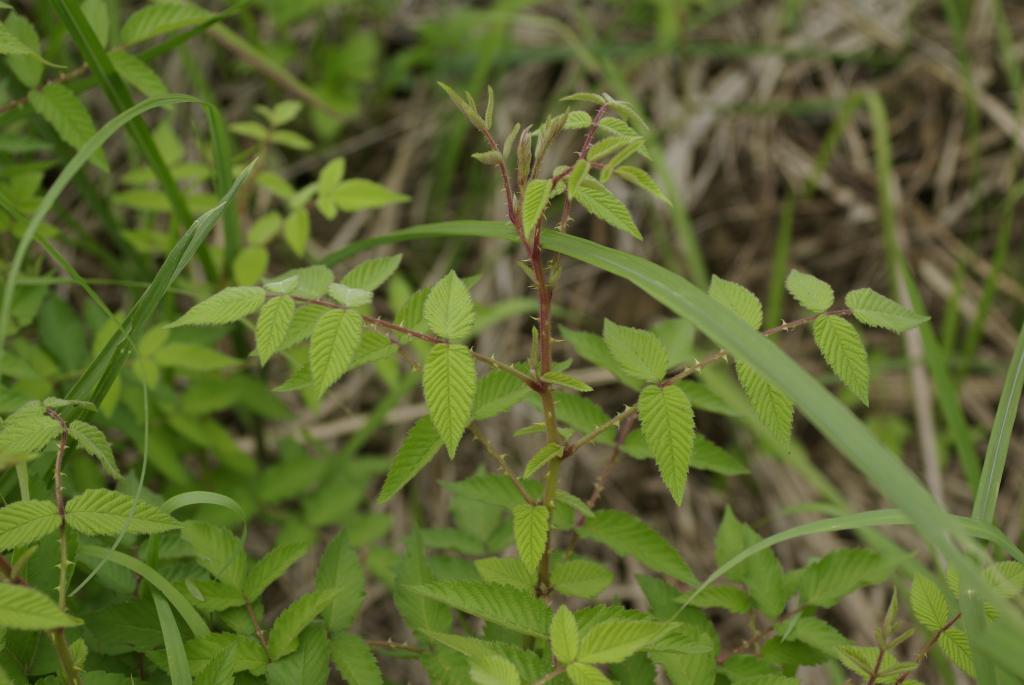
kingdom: Plantae
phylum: Tracheophyta
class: Magnoliopsida
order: Rosales
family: Rosaceae
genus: Rubus
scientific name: Rubus croceacanthus
